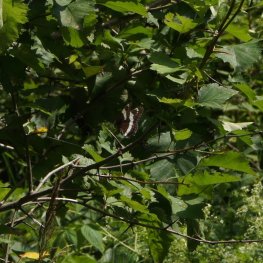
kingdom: Animalia
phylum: Arthropoda
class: Insecta
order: Lepidoptera
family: Nymphalidae
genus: Limenitis
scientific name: Limenitis arthemis
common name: Red-spotted Admiral
